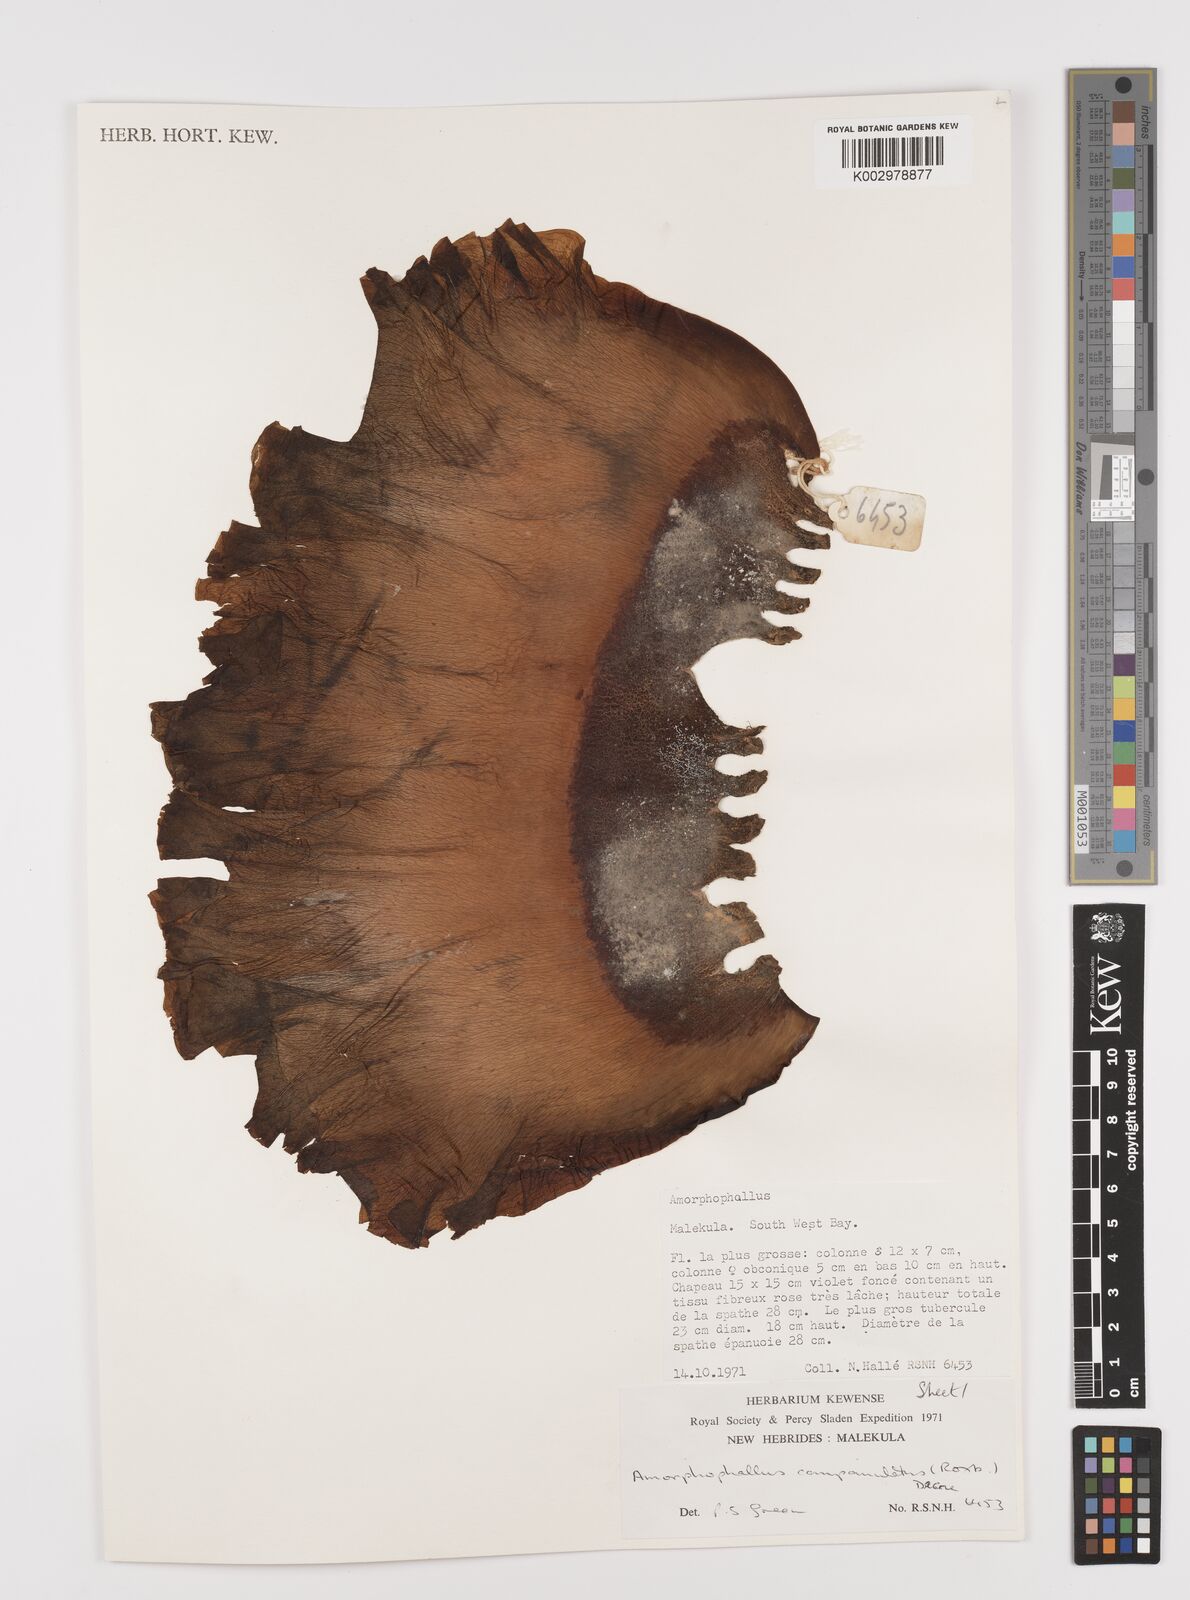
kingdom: Plantae
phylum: Tracheophyta
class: Liliopsida
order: Alismatales
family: Araceae
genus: Amorphophallus
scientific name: Amorphophallus paeoniifolius
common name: Telinga-potato
